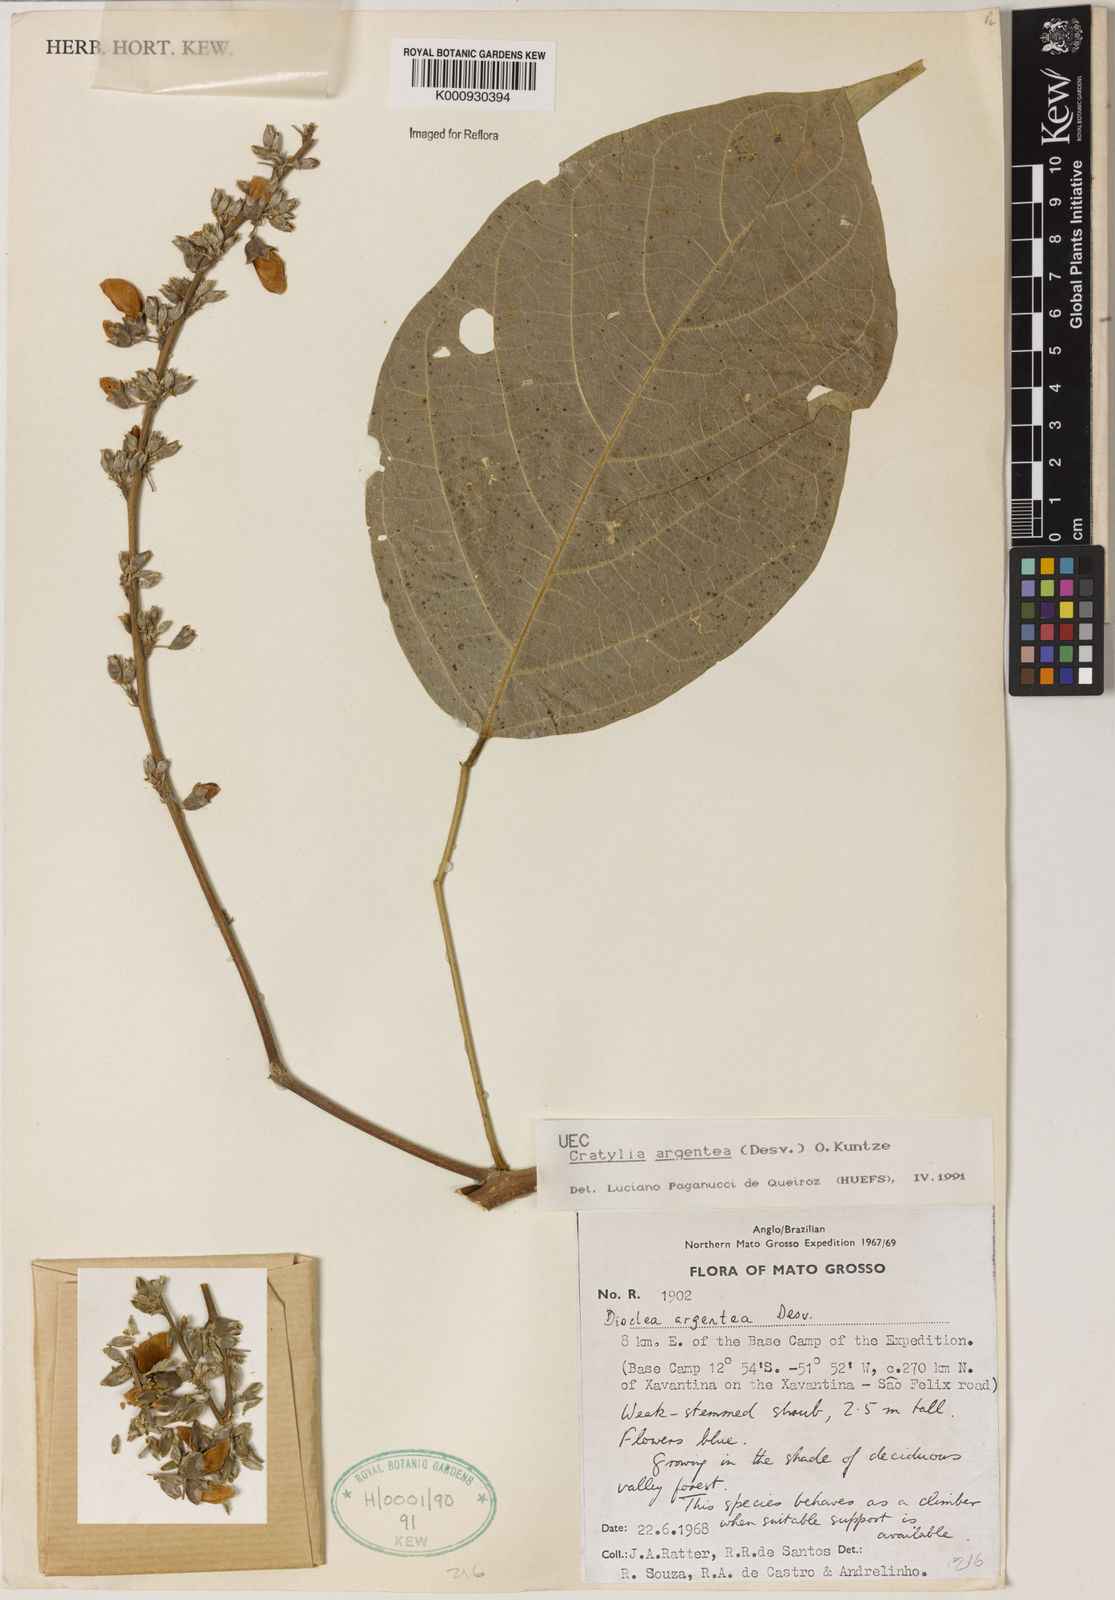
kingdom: Plantae
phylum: Tracheophyta
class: Magnoliopsida
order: Fabales
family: Fabaceae
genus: Cratylia
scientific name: Cratylia argentea
